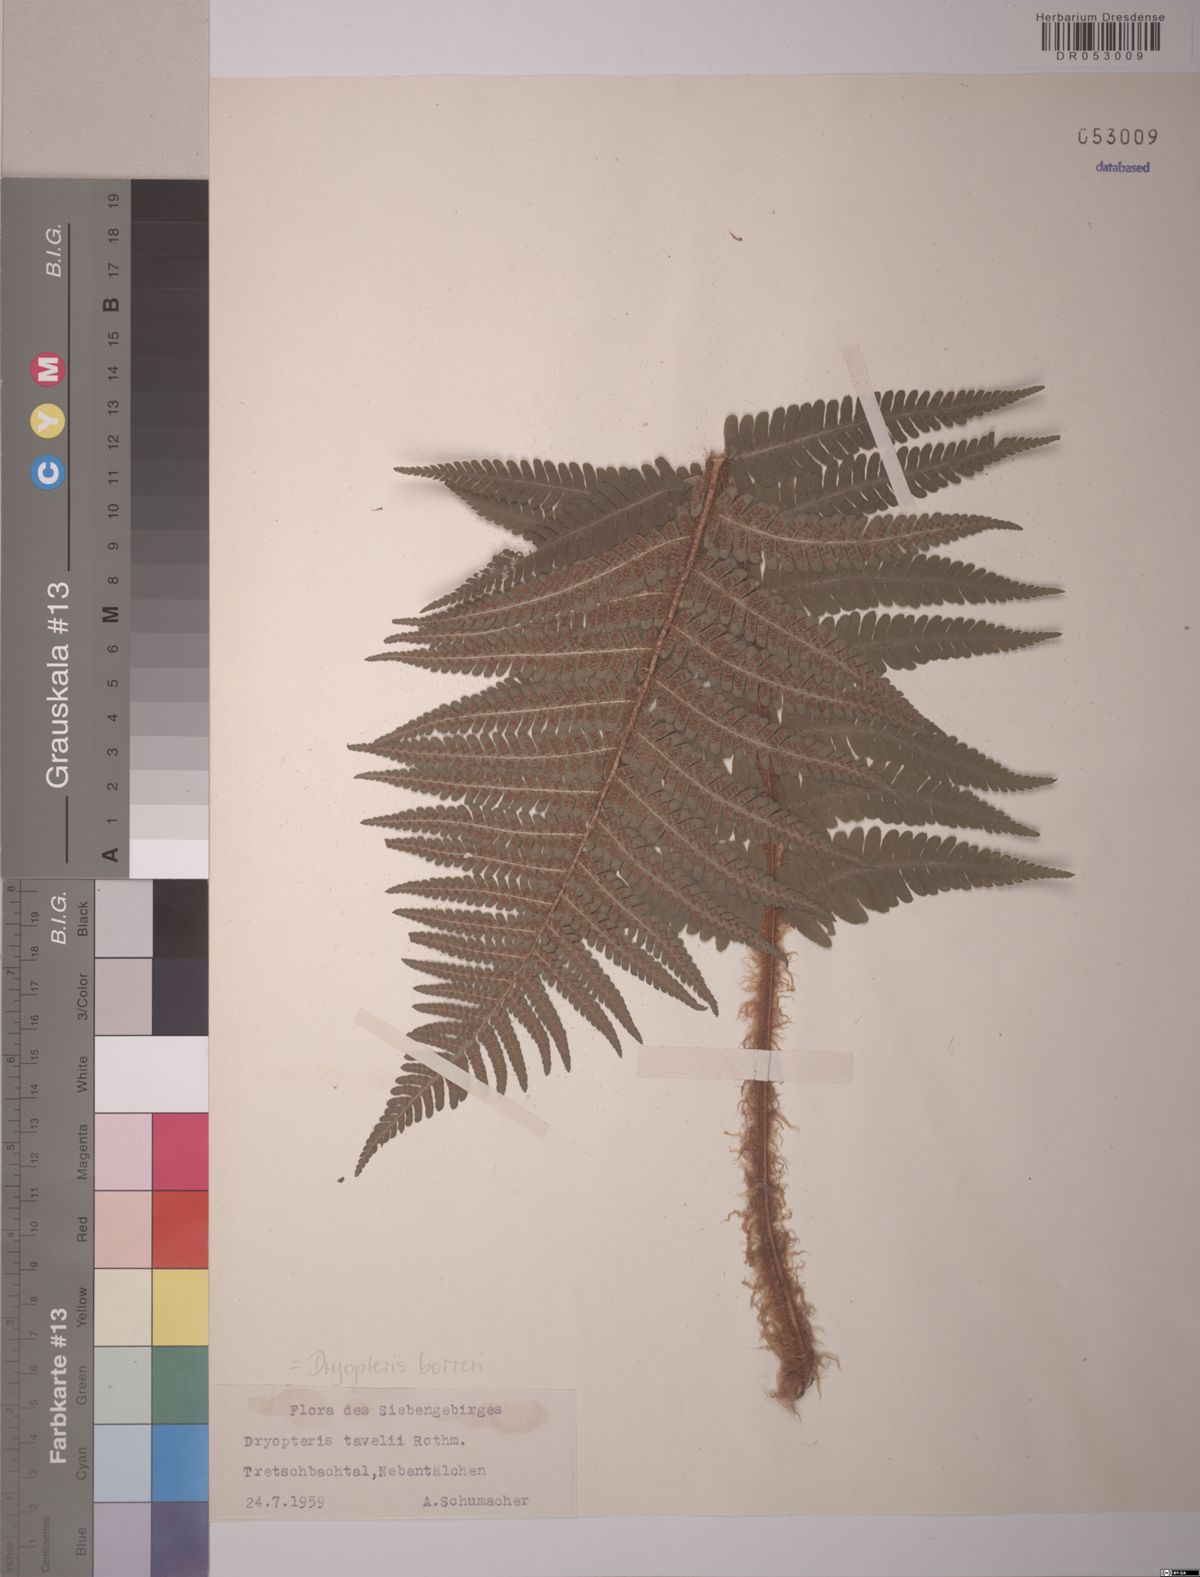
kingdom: Plantae
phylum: Tracheophyta
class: Polypodiopsida
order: Polypodiales
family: Dryopteridaceae
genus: Dryopteris
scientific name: Dryopteris borreri
